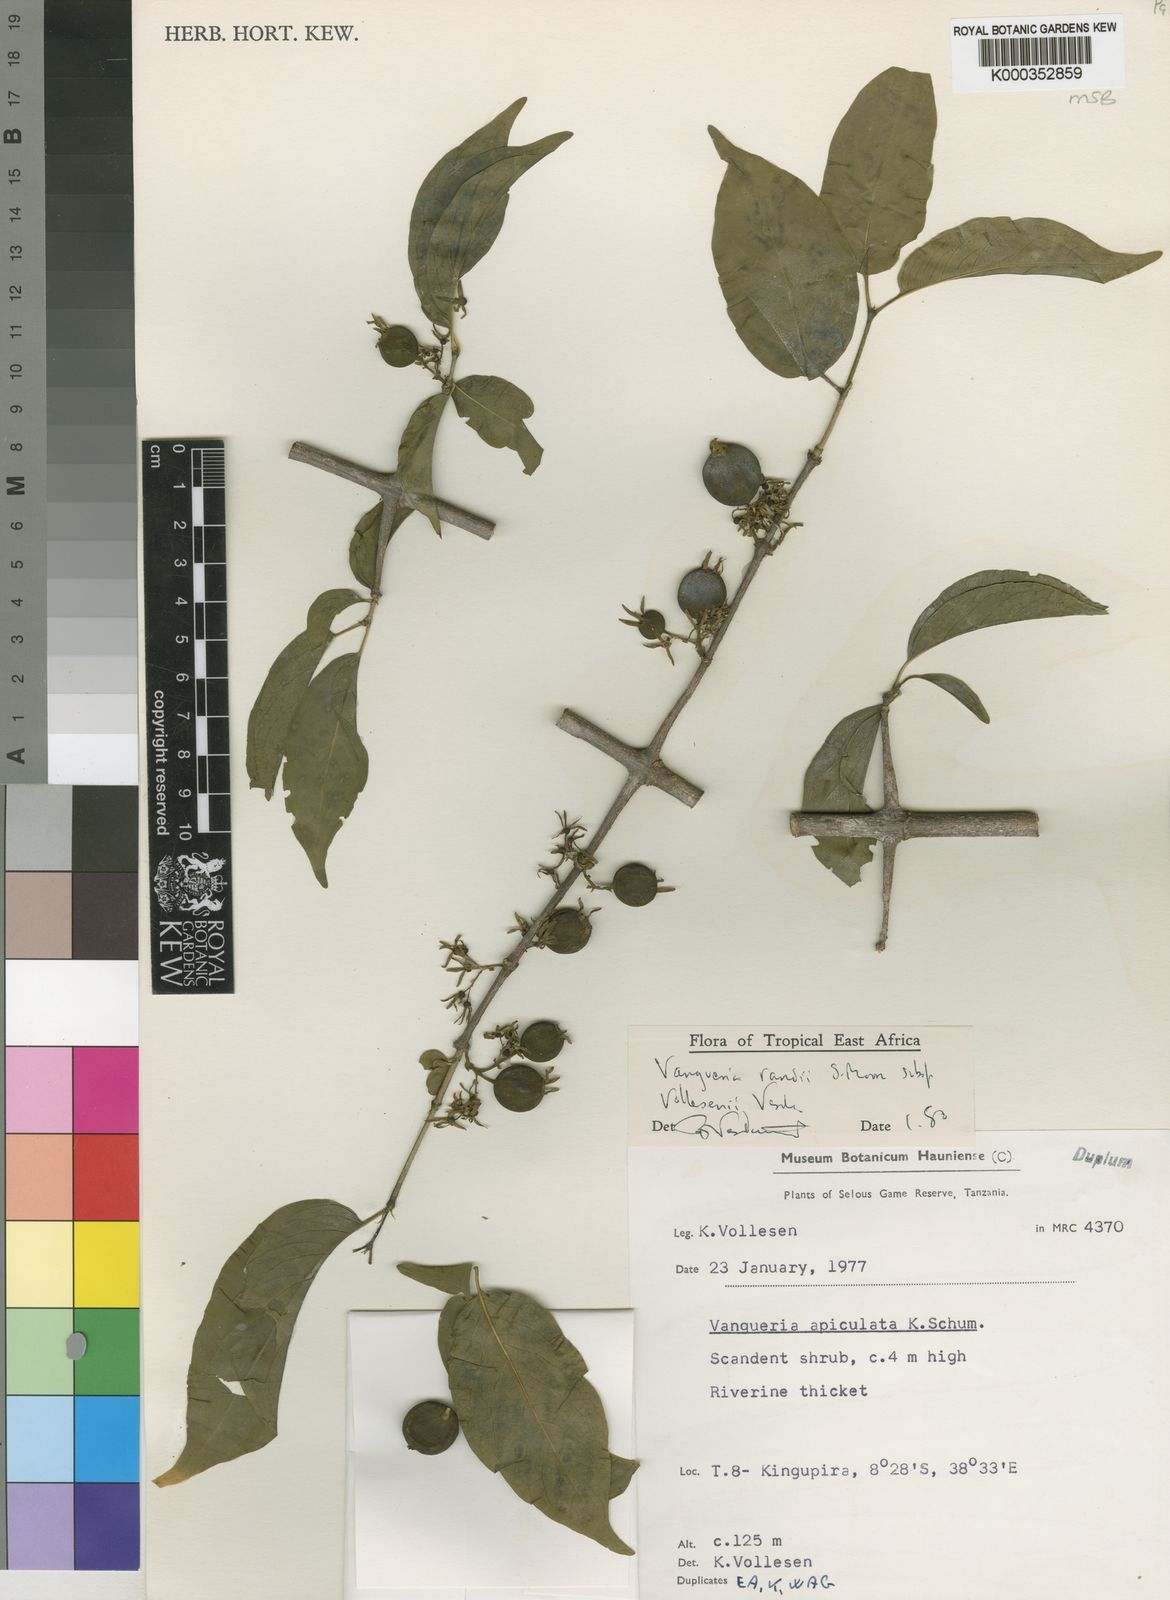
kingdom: Plantae
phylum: Tracheophyta
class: Magnoliopsida
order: Gentianales
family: Rubiaceae
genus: Vangueria
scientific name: Vangueria randii
